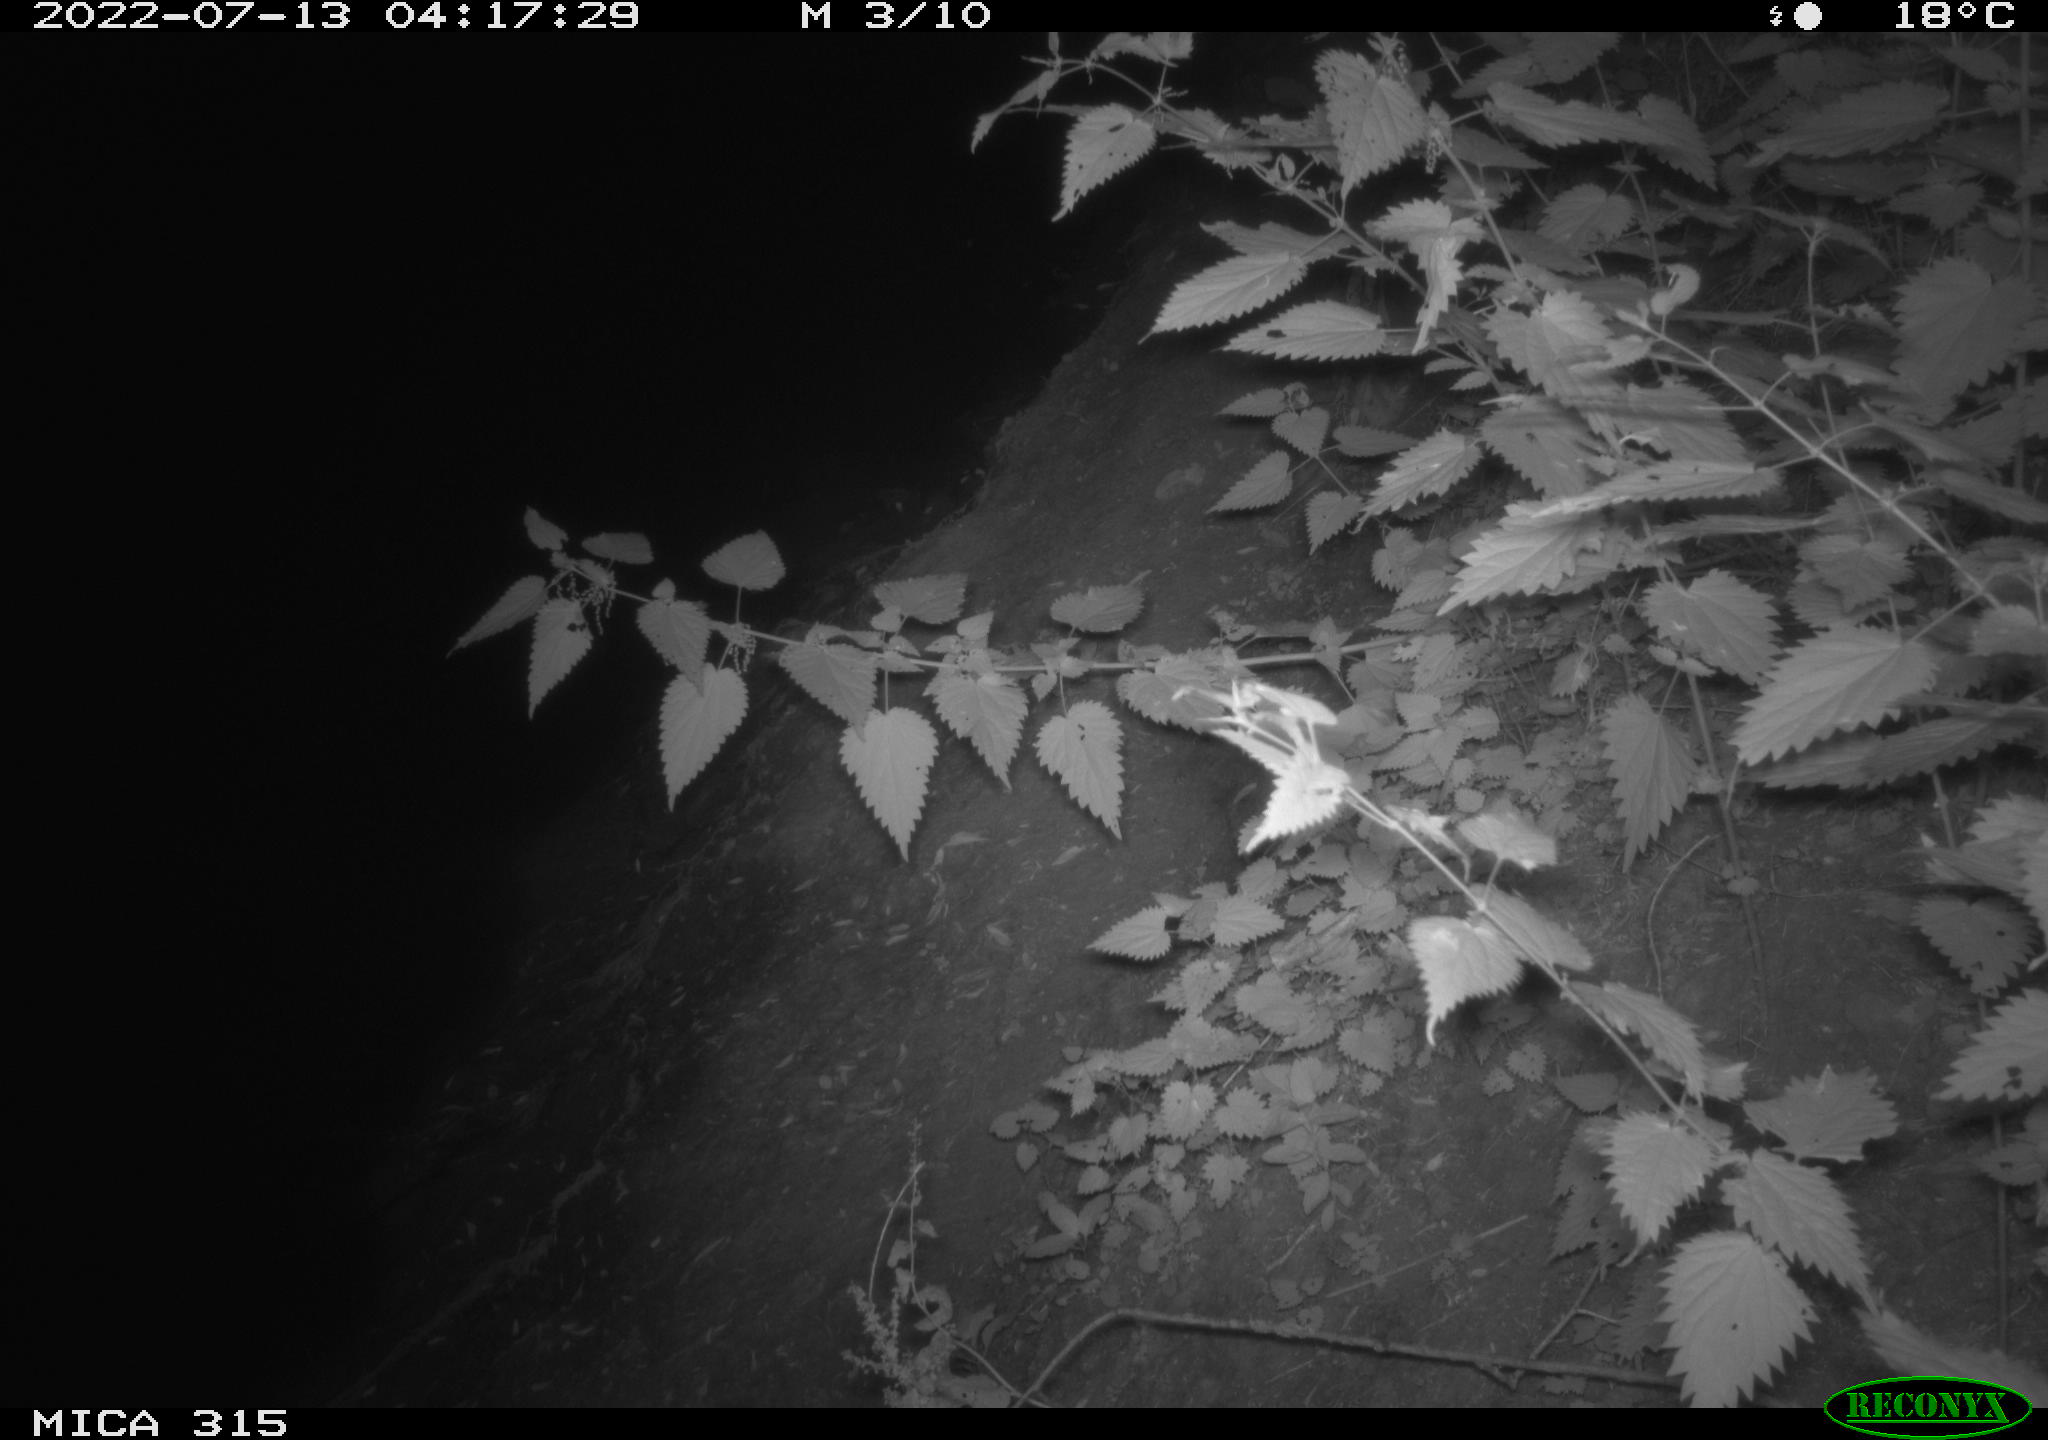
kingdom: Animalia
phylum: Chordata
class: Mammalia
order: Carnivora
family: Canidae
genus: Vulpes
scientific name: Vulpes vulpes
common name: Red fox
